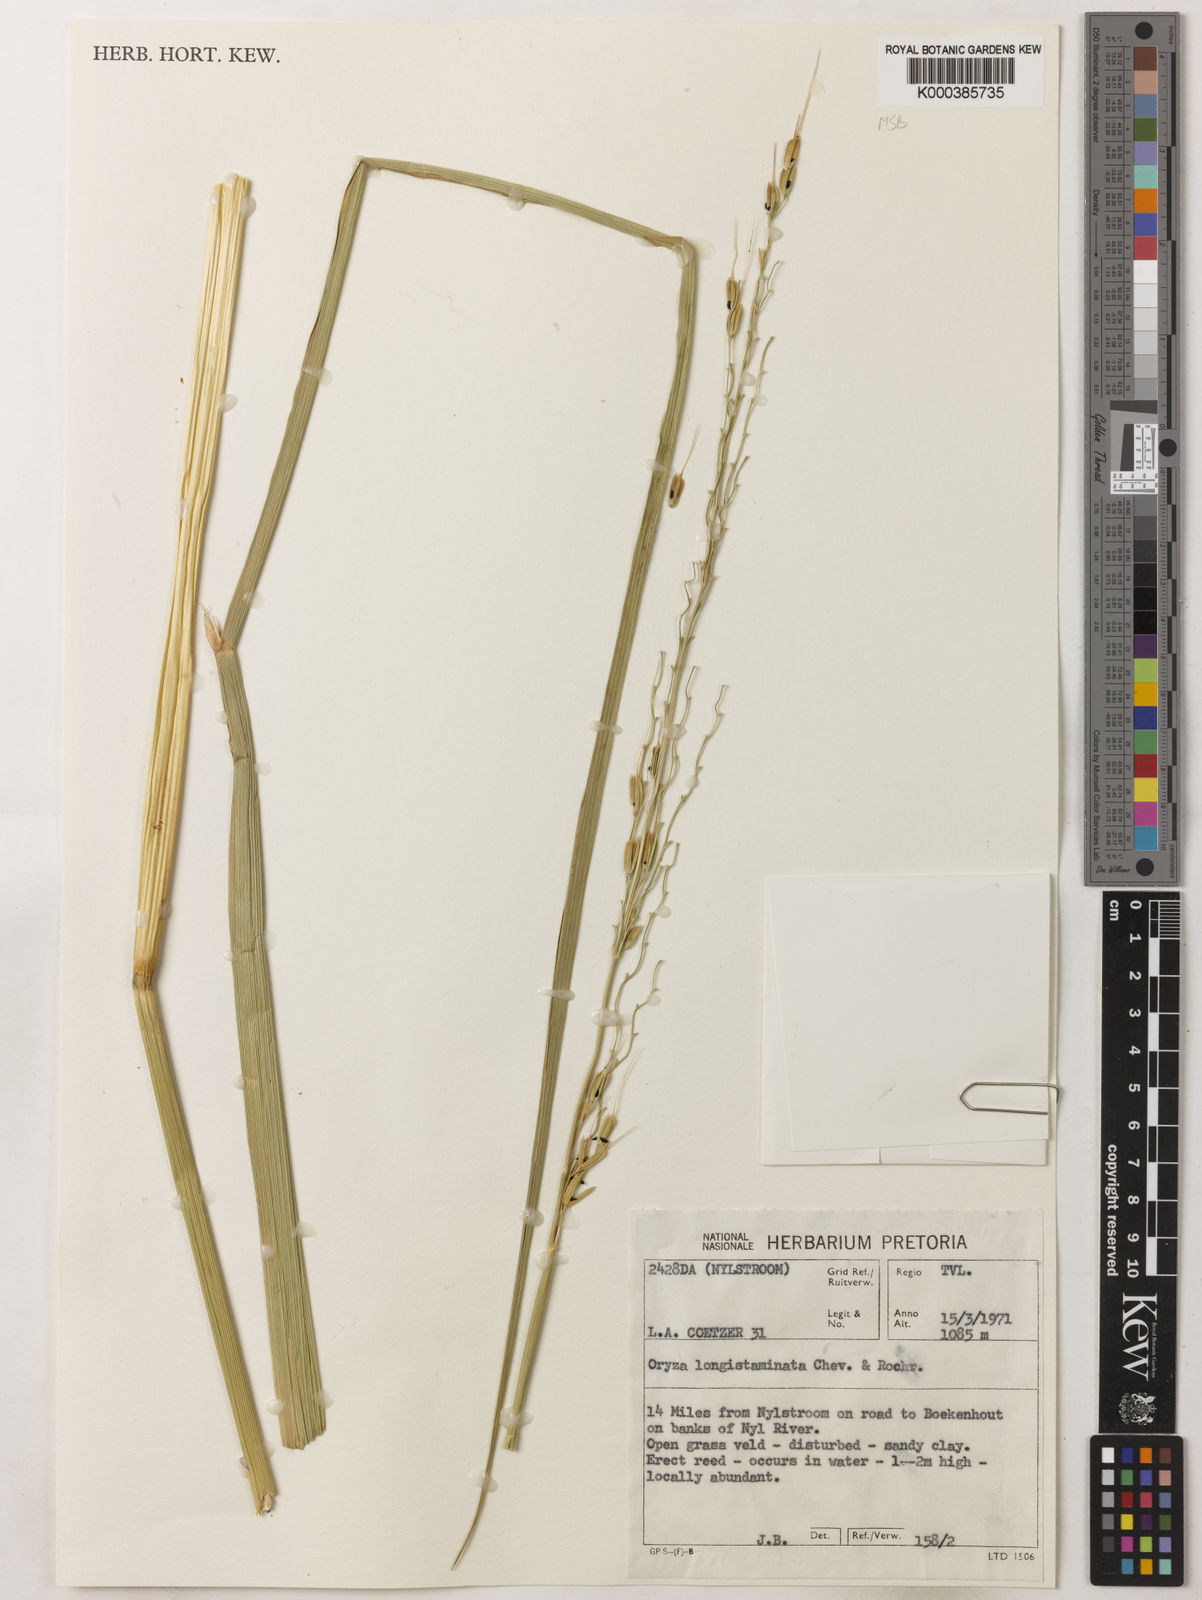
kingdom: Plantae
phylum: Tracheophyta
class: Liliopsida
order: Poales
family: Poaceae
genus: Oryza
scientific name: Oryza longistaminata
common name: Red rice
